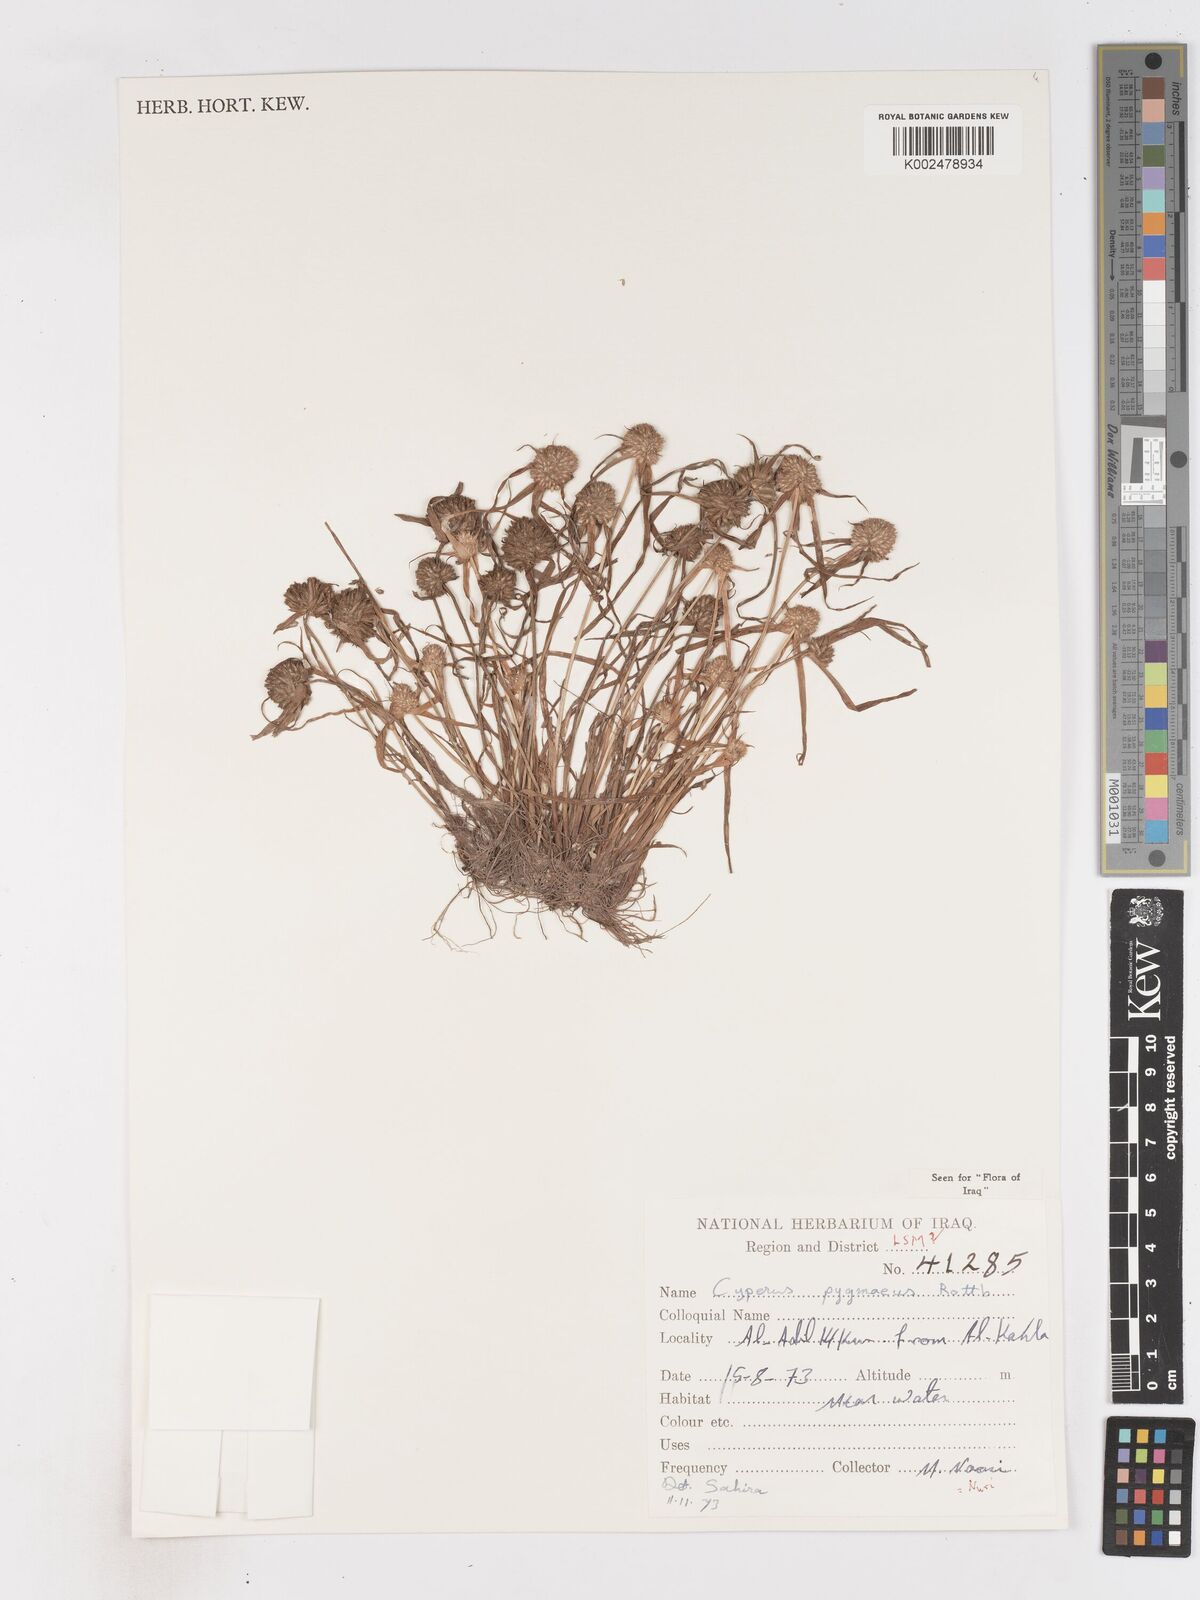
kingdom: Plantae
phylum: Tracheophyta
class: Liliopsida
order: Poales
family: Cyperaceae
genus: Cyperus
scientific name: Cyperus michelianus
